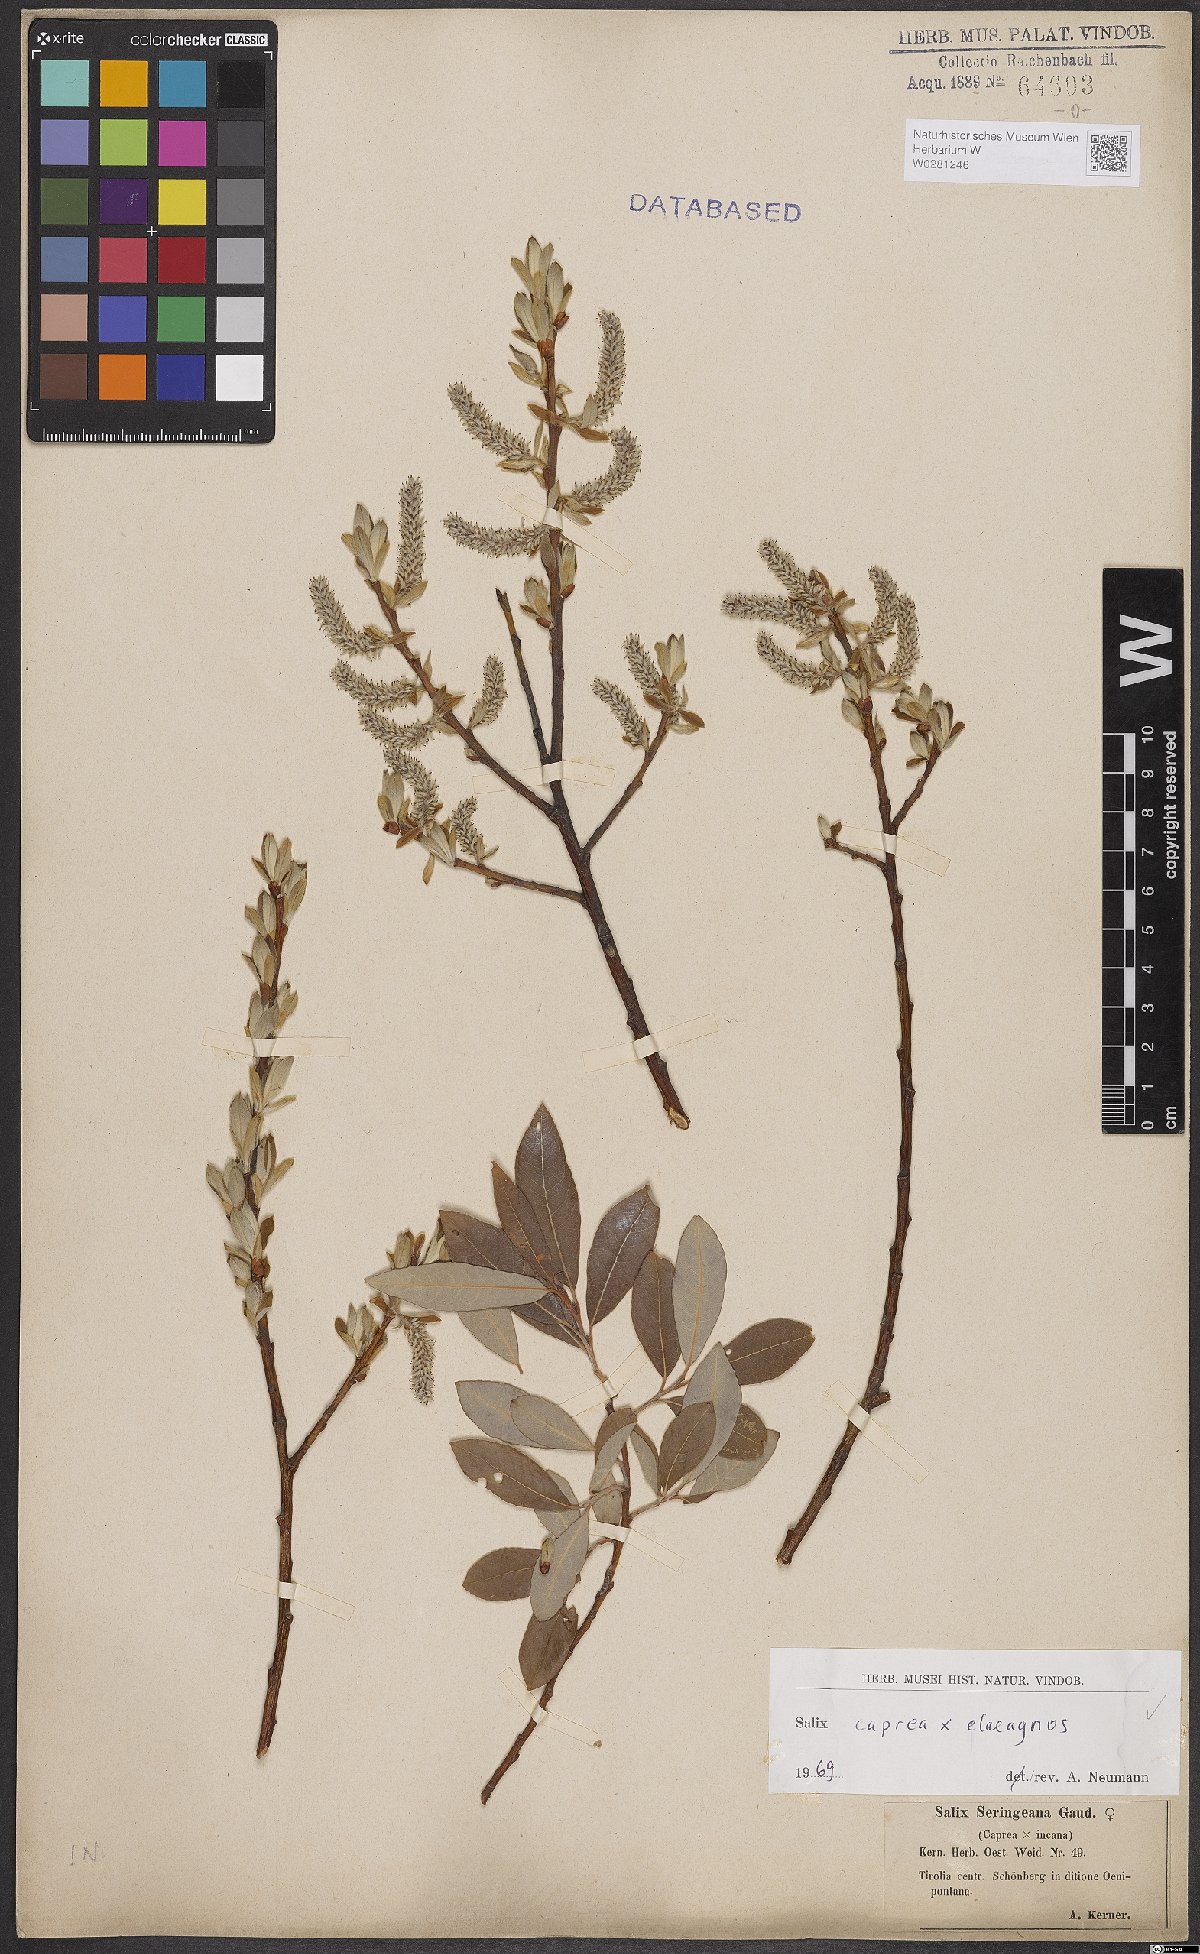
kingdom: Plantae
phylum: Tracheophyta
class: Magnoliopsida
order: Malpighiales
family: Salicaceae
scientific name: Salicaceae
